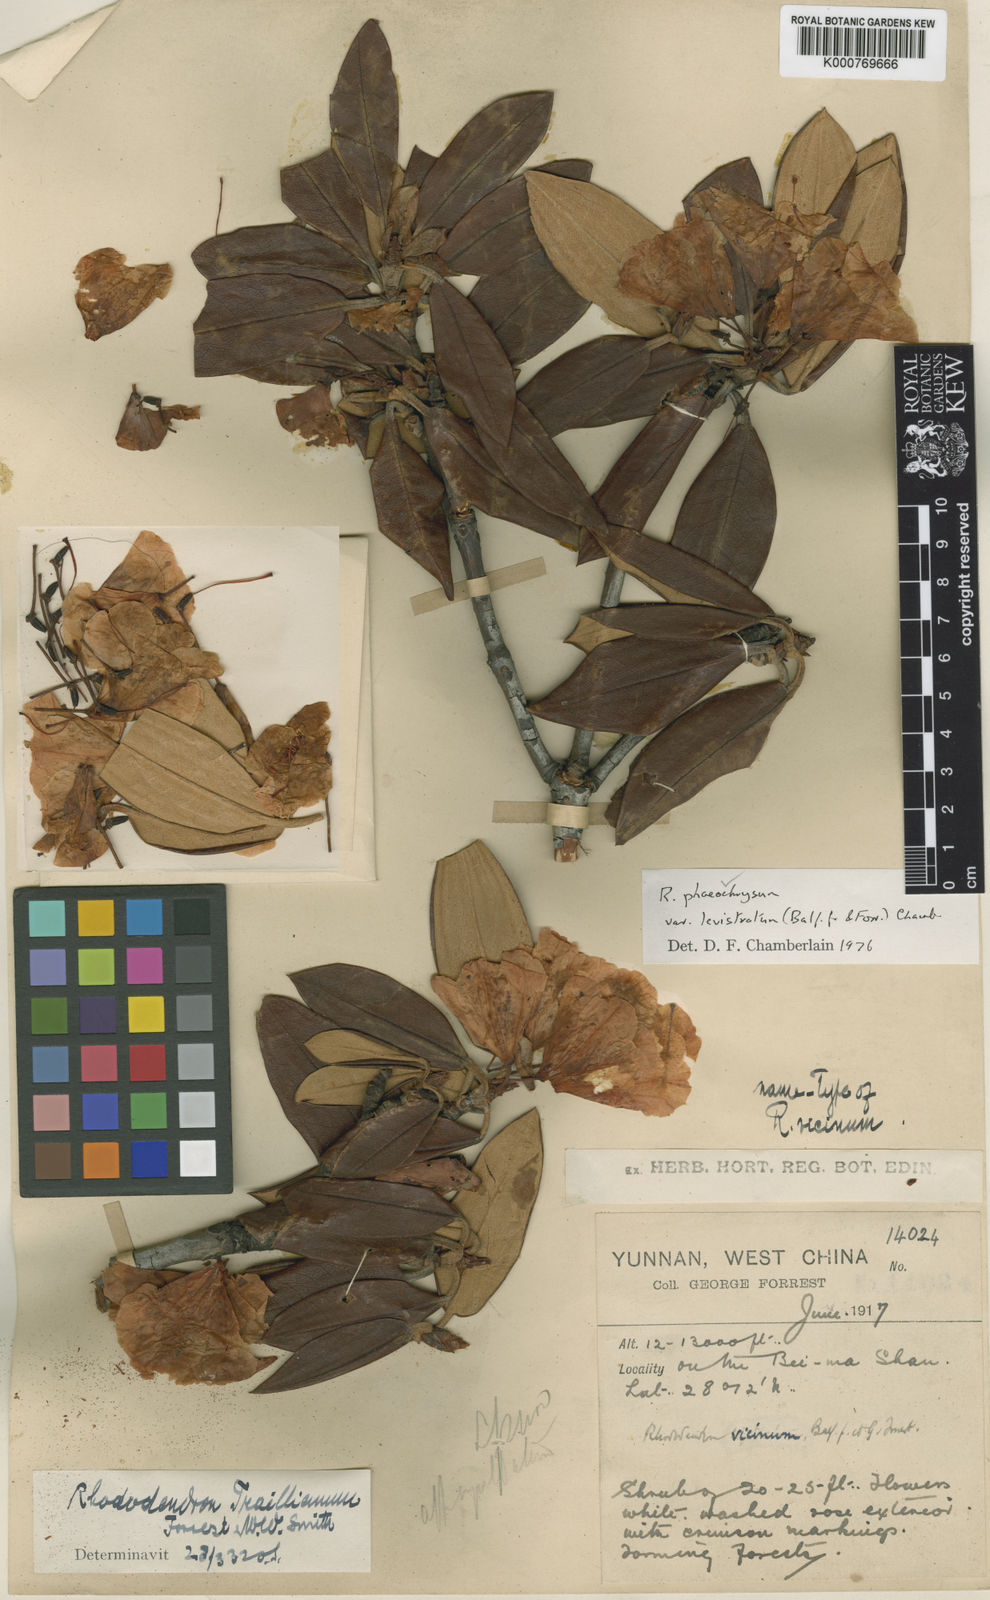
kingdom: Plantae
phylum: Tracheophyta
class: Magnoliopsida
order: Ericales
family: Ericaceae
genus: Rhododendron
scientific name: Rhododendron phaeochrysum
